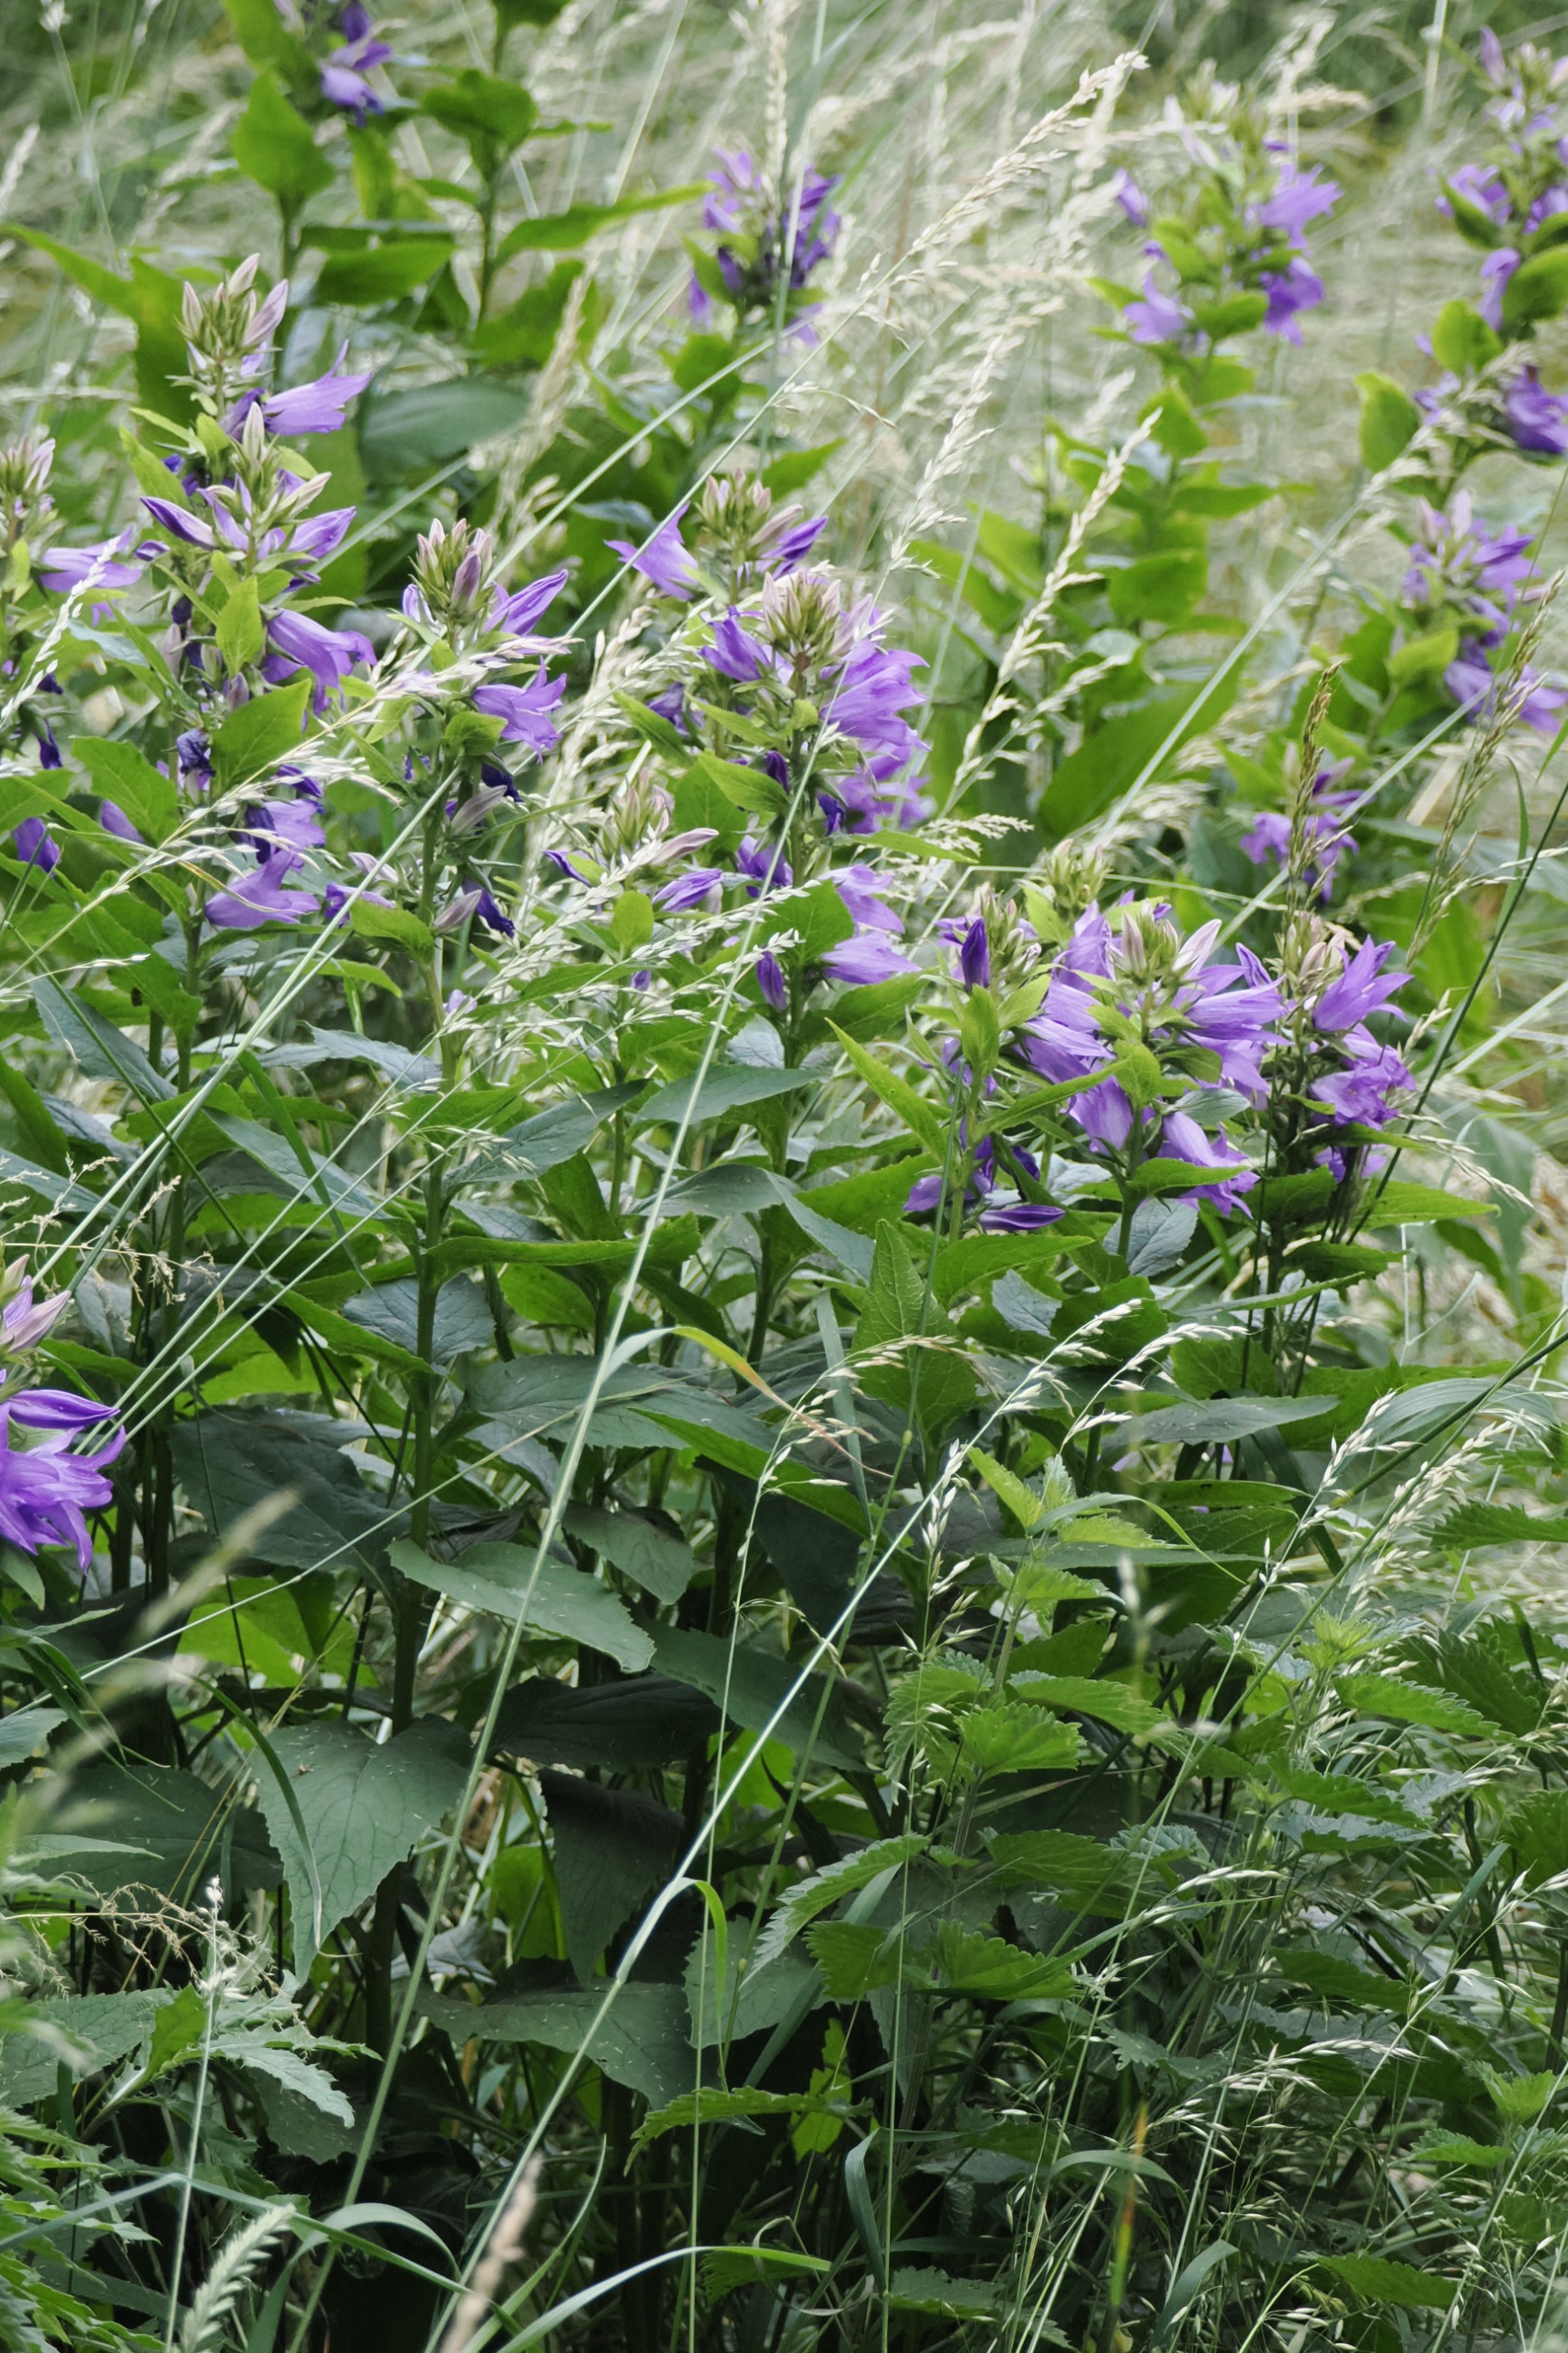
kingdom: Plantae
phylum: Tracheophyta
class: Magnoliopsida
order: Asterales
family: Campanulaceae
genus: Campanula
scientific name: Campanula latifolia
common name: Bredbladet klokke
